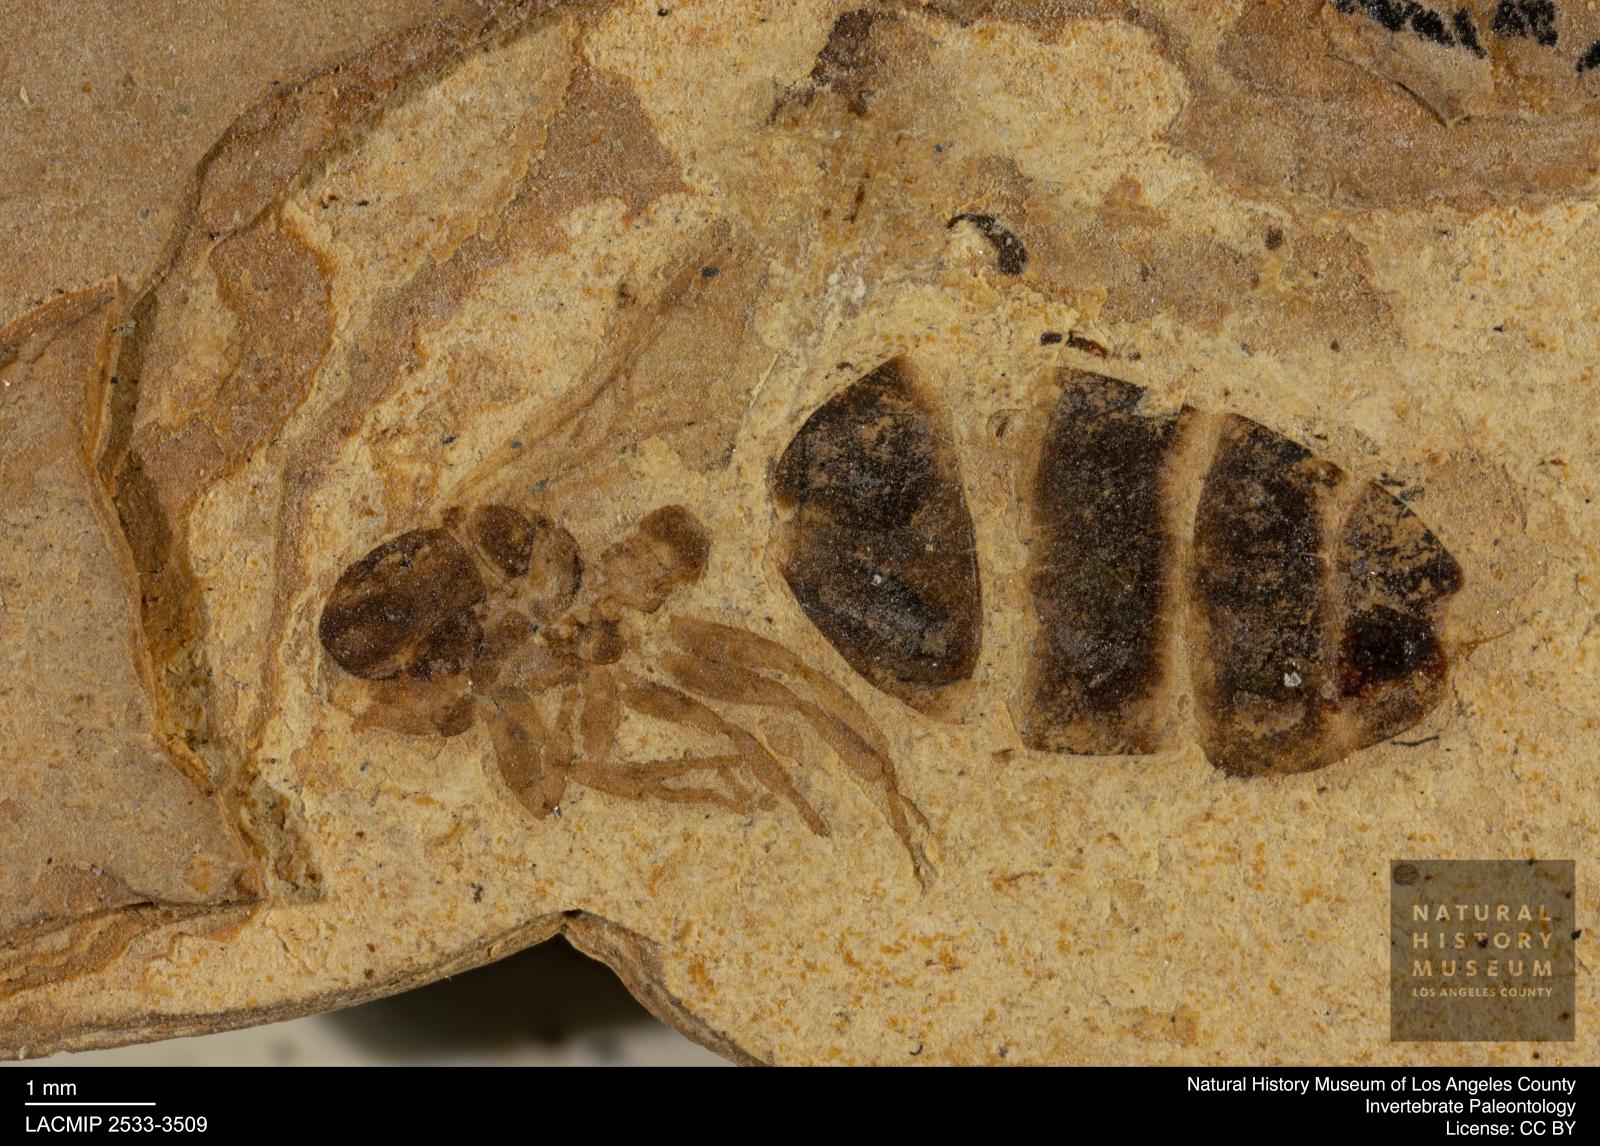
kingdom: Animalia
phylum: Arthropoda
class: Insecta
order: Hymenoptera
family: Formicidae
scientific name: Formicidae
